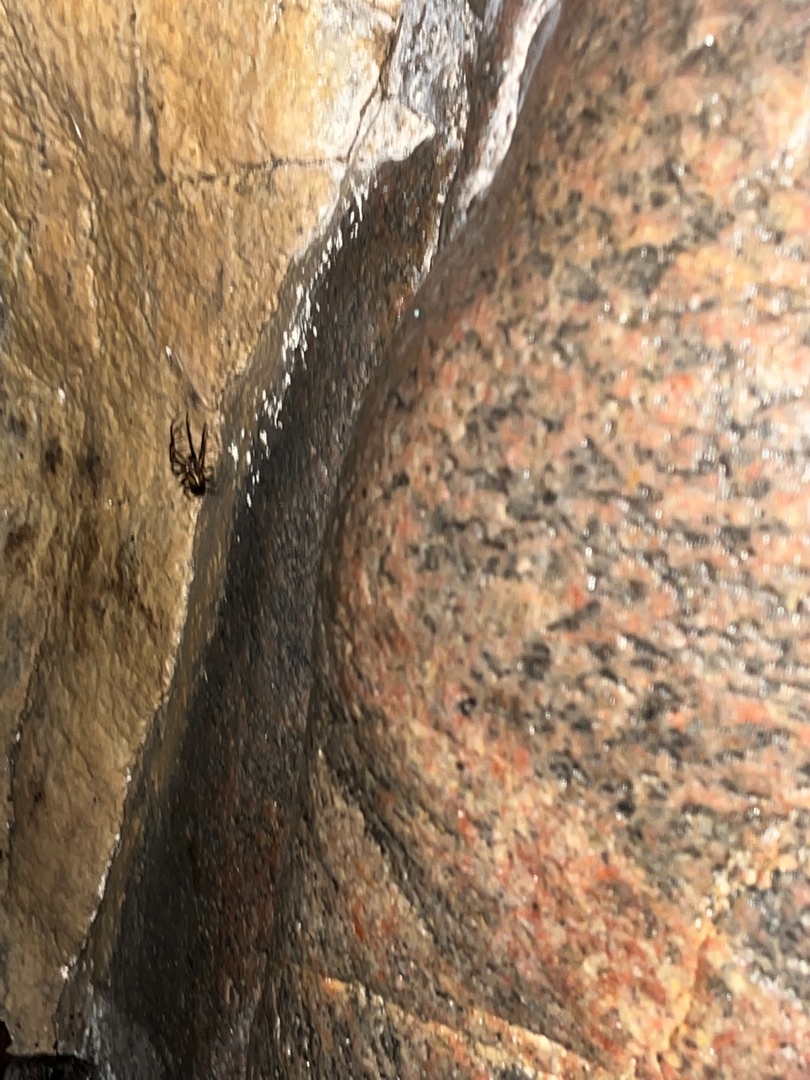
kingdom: Animalia
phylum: Arthropoda
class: Arachnida
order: Araneae
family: Tetragnathidae
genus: Meta
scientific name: Meta menardi
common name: Grotteedderkop
